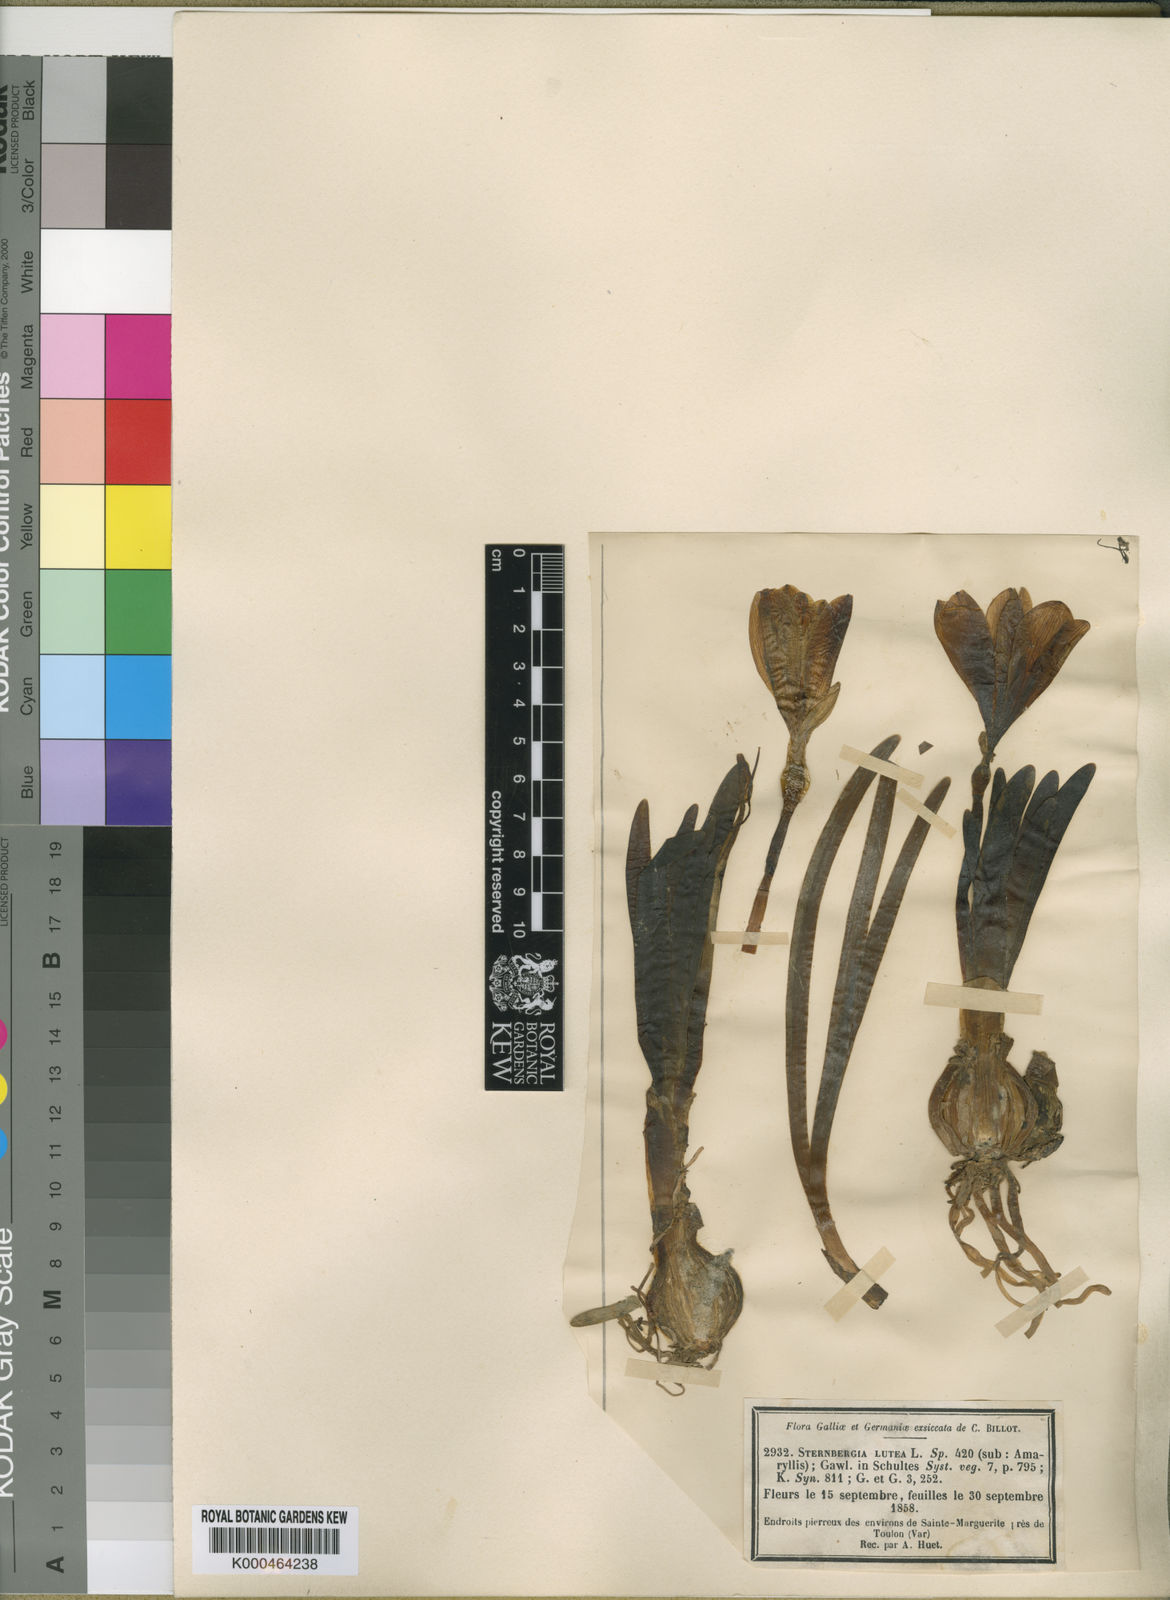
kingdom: Plantae
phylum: Tracheophyta
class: Liliopsida
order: Asparagales
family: Amaryllidaceae
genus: Sternbergia
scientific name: Sternbergia
